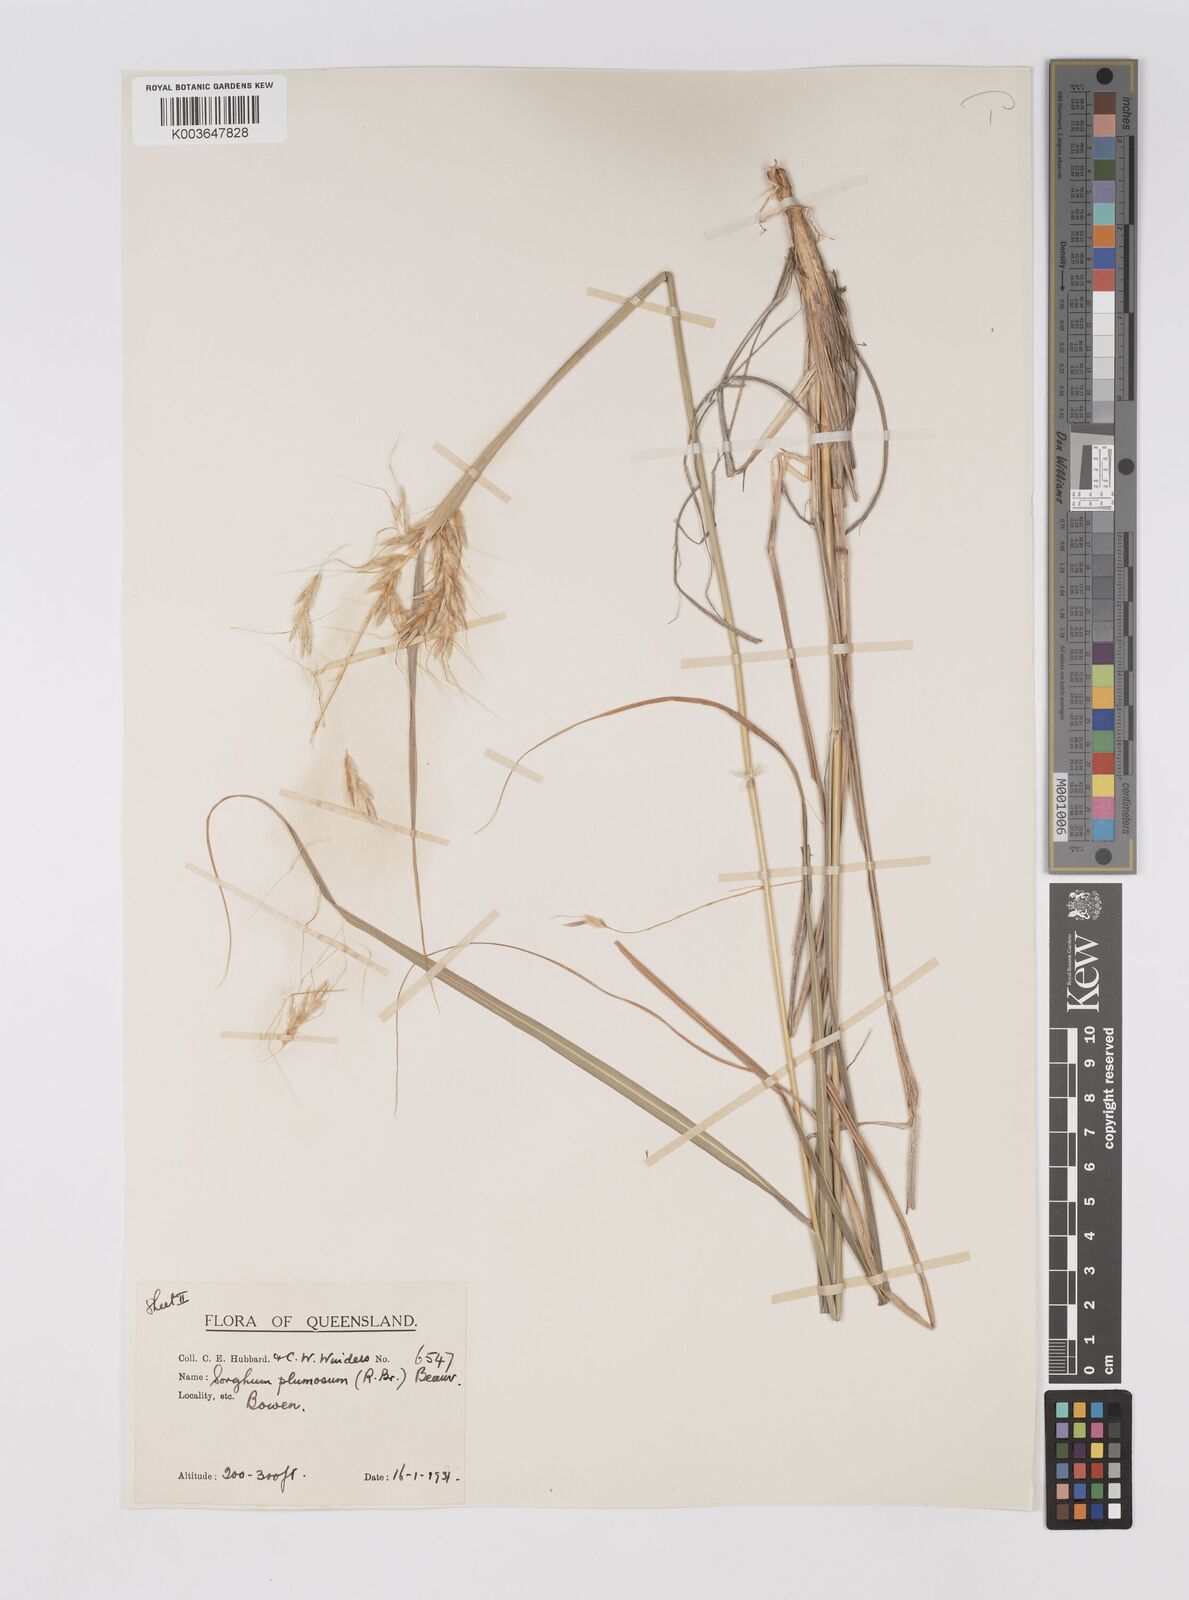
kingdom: Plantae
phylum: Tracheophyta
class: Liliopsida
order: Poales
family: Poaceae
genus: Sarga
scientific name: Sarga plumosa
